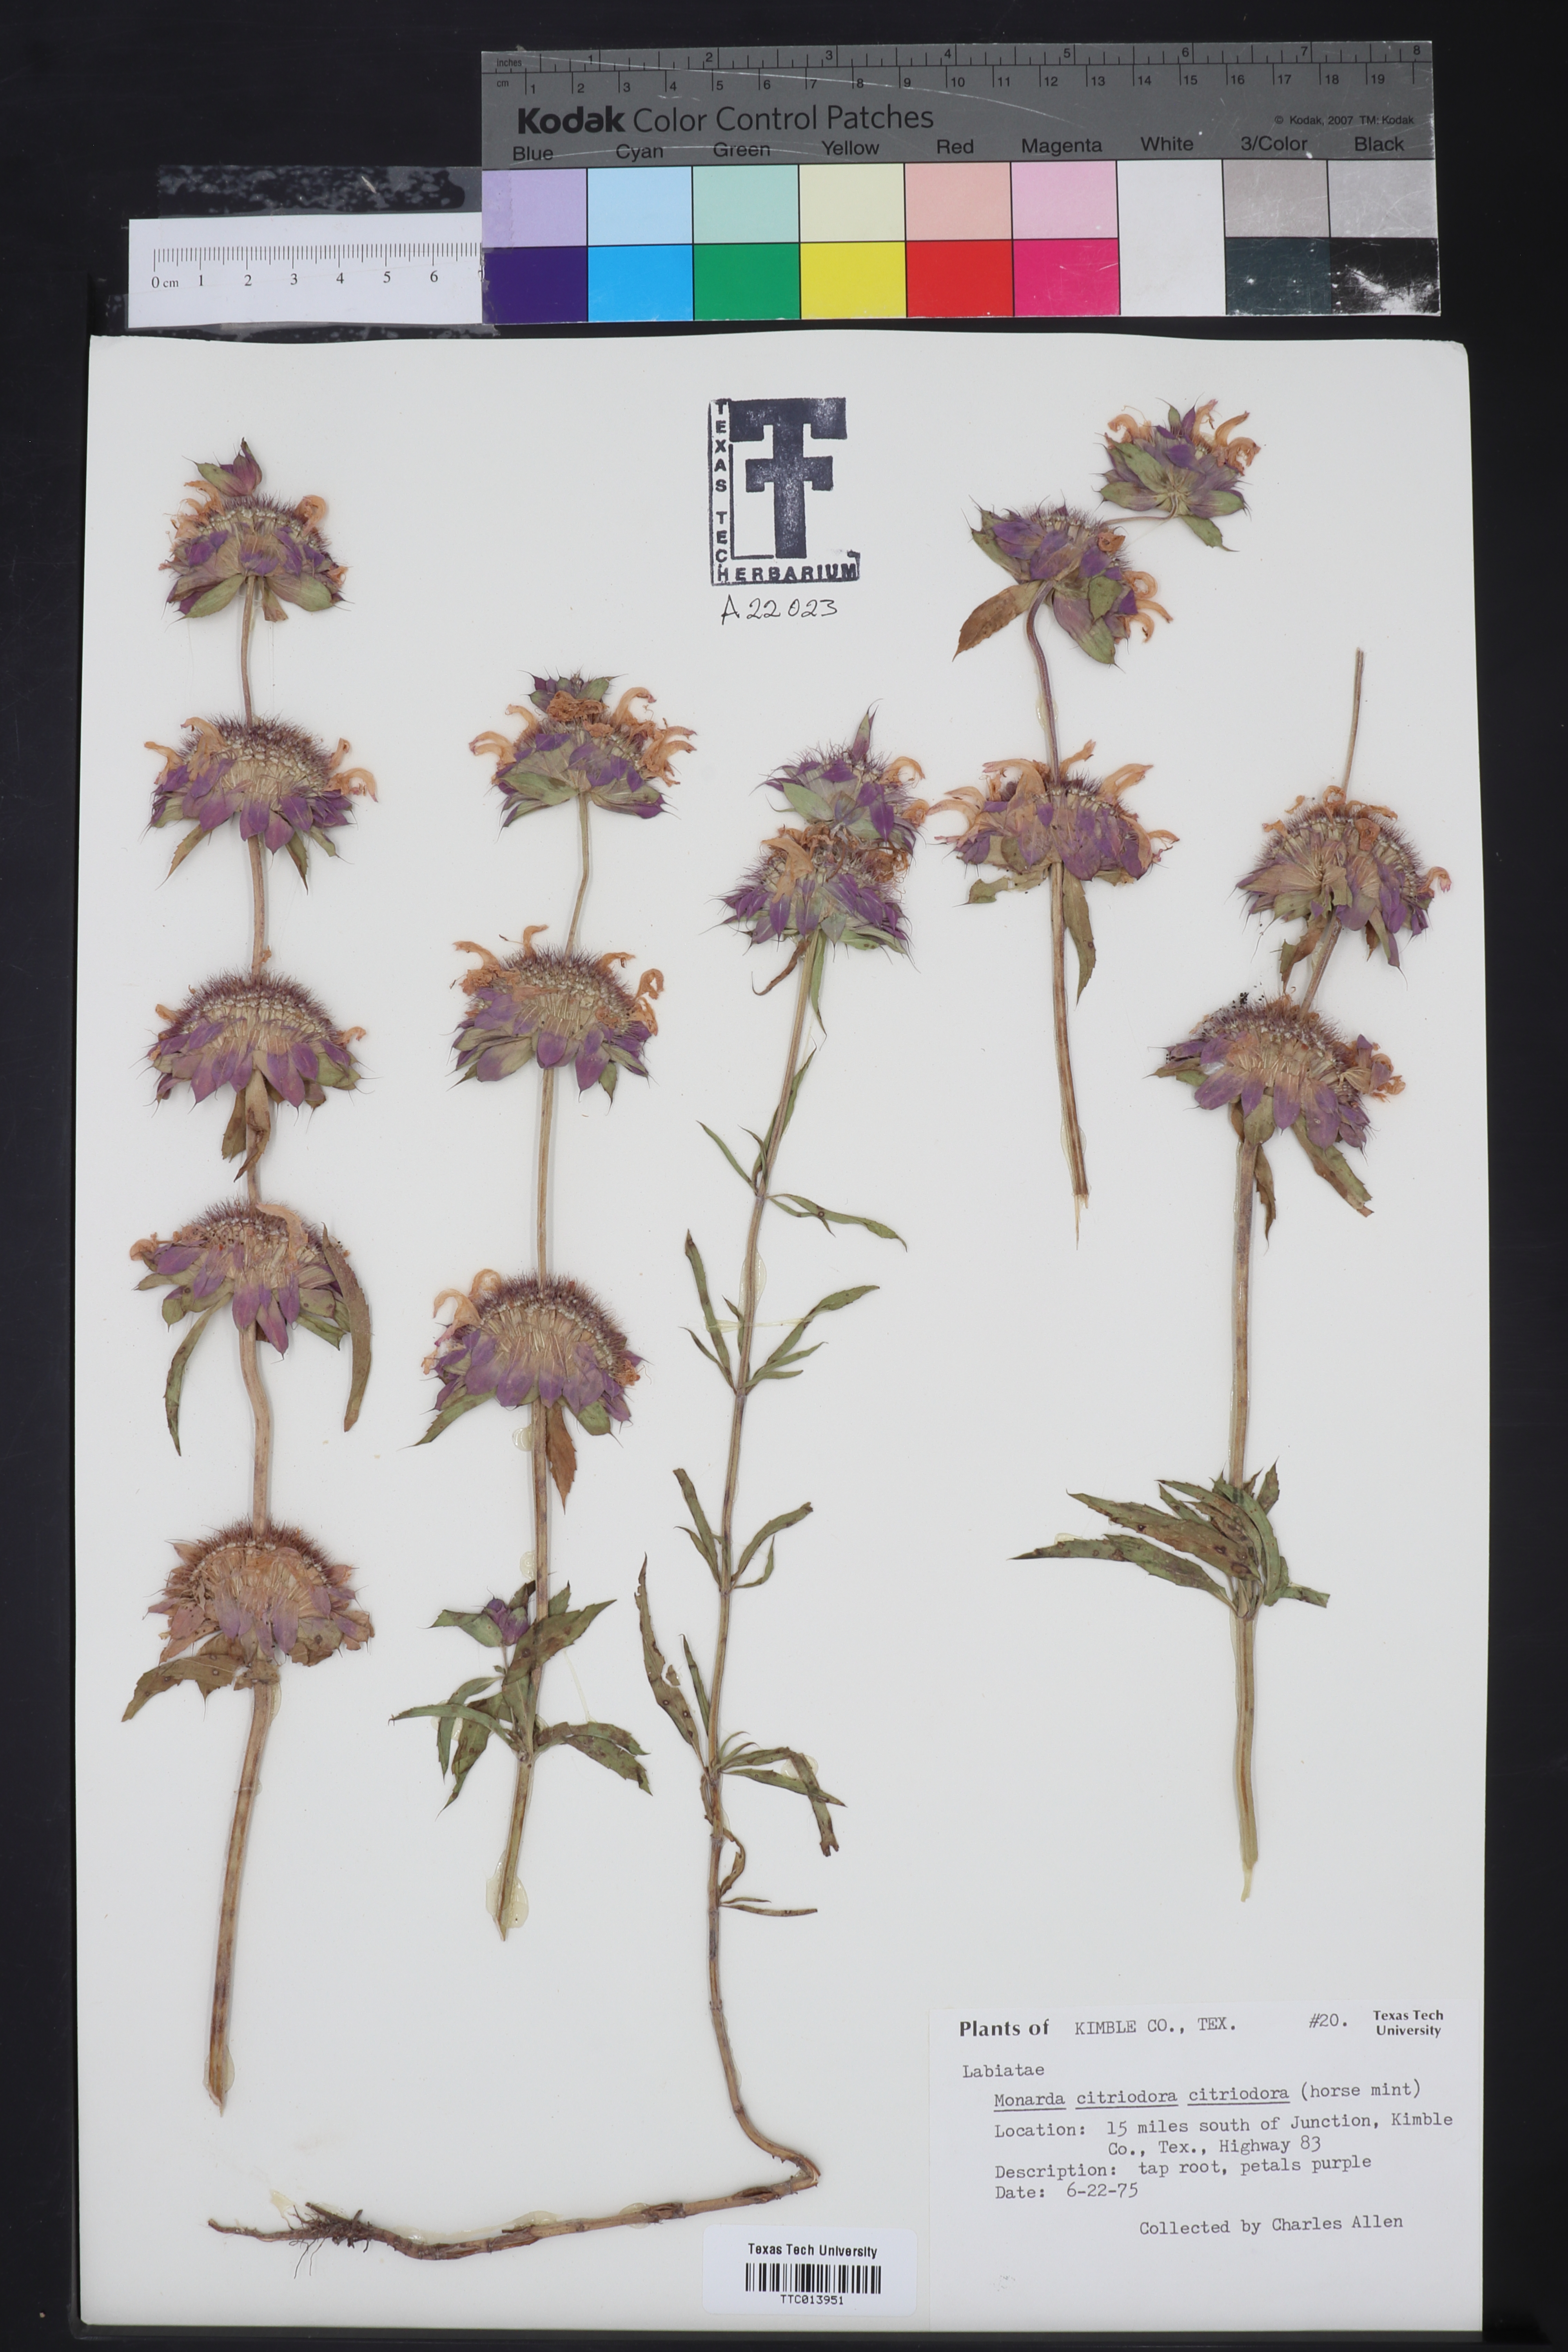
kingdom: Plantae
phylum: Tracheophyta
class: Magnoliopsida
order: Lamiales
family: Lamiaceae
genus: Monarda
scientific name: Monarda citriodora
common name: Lemon beebalm
